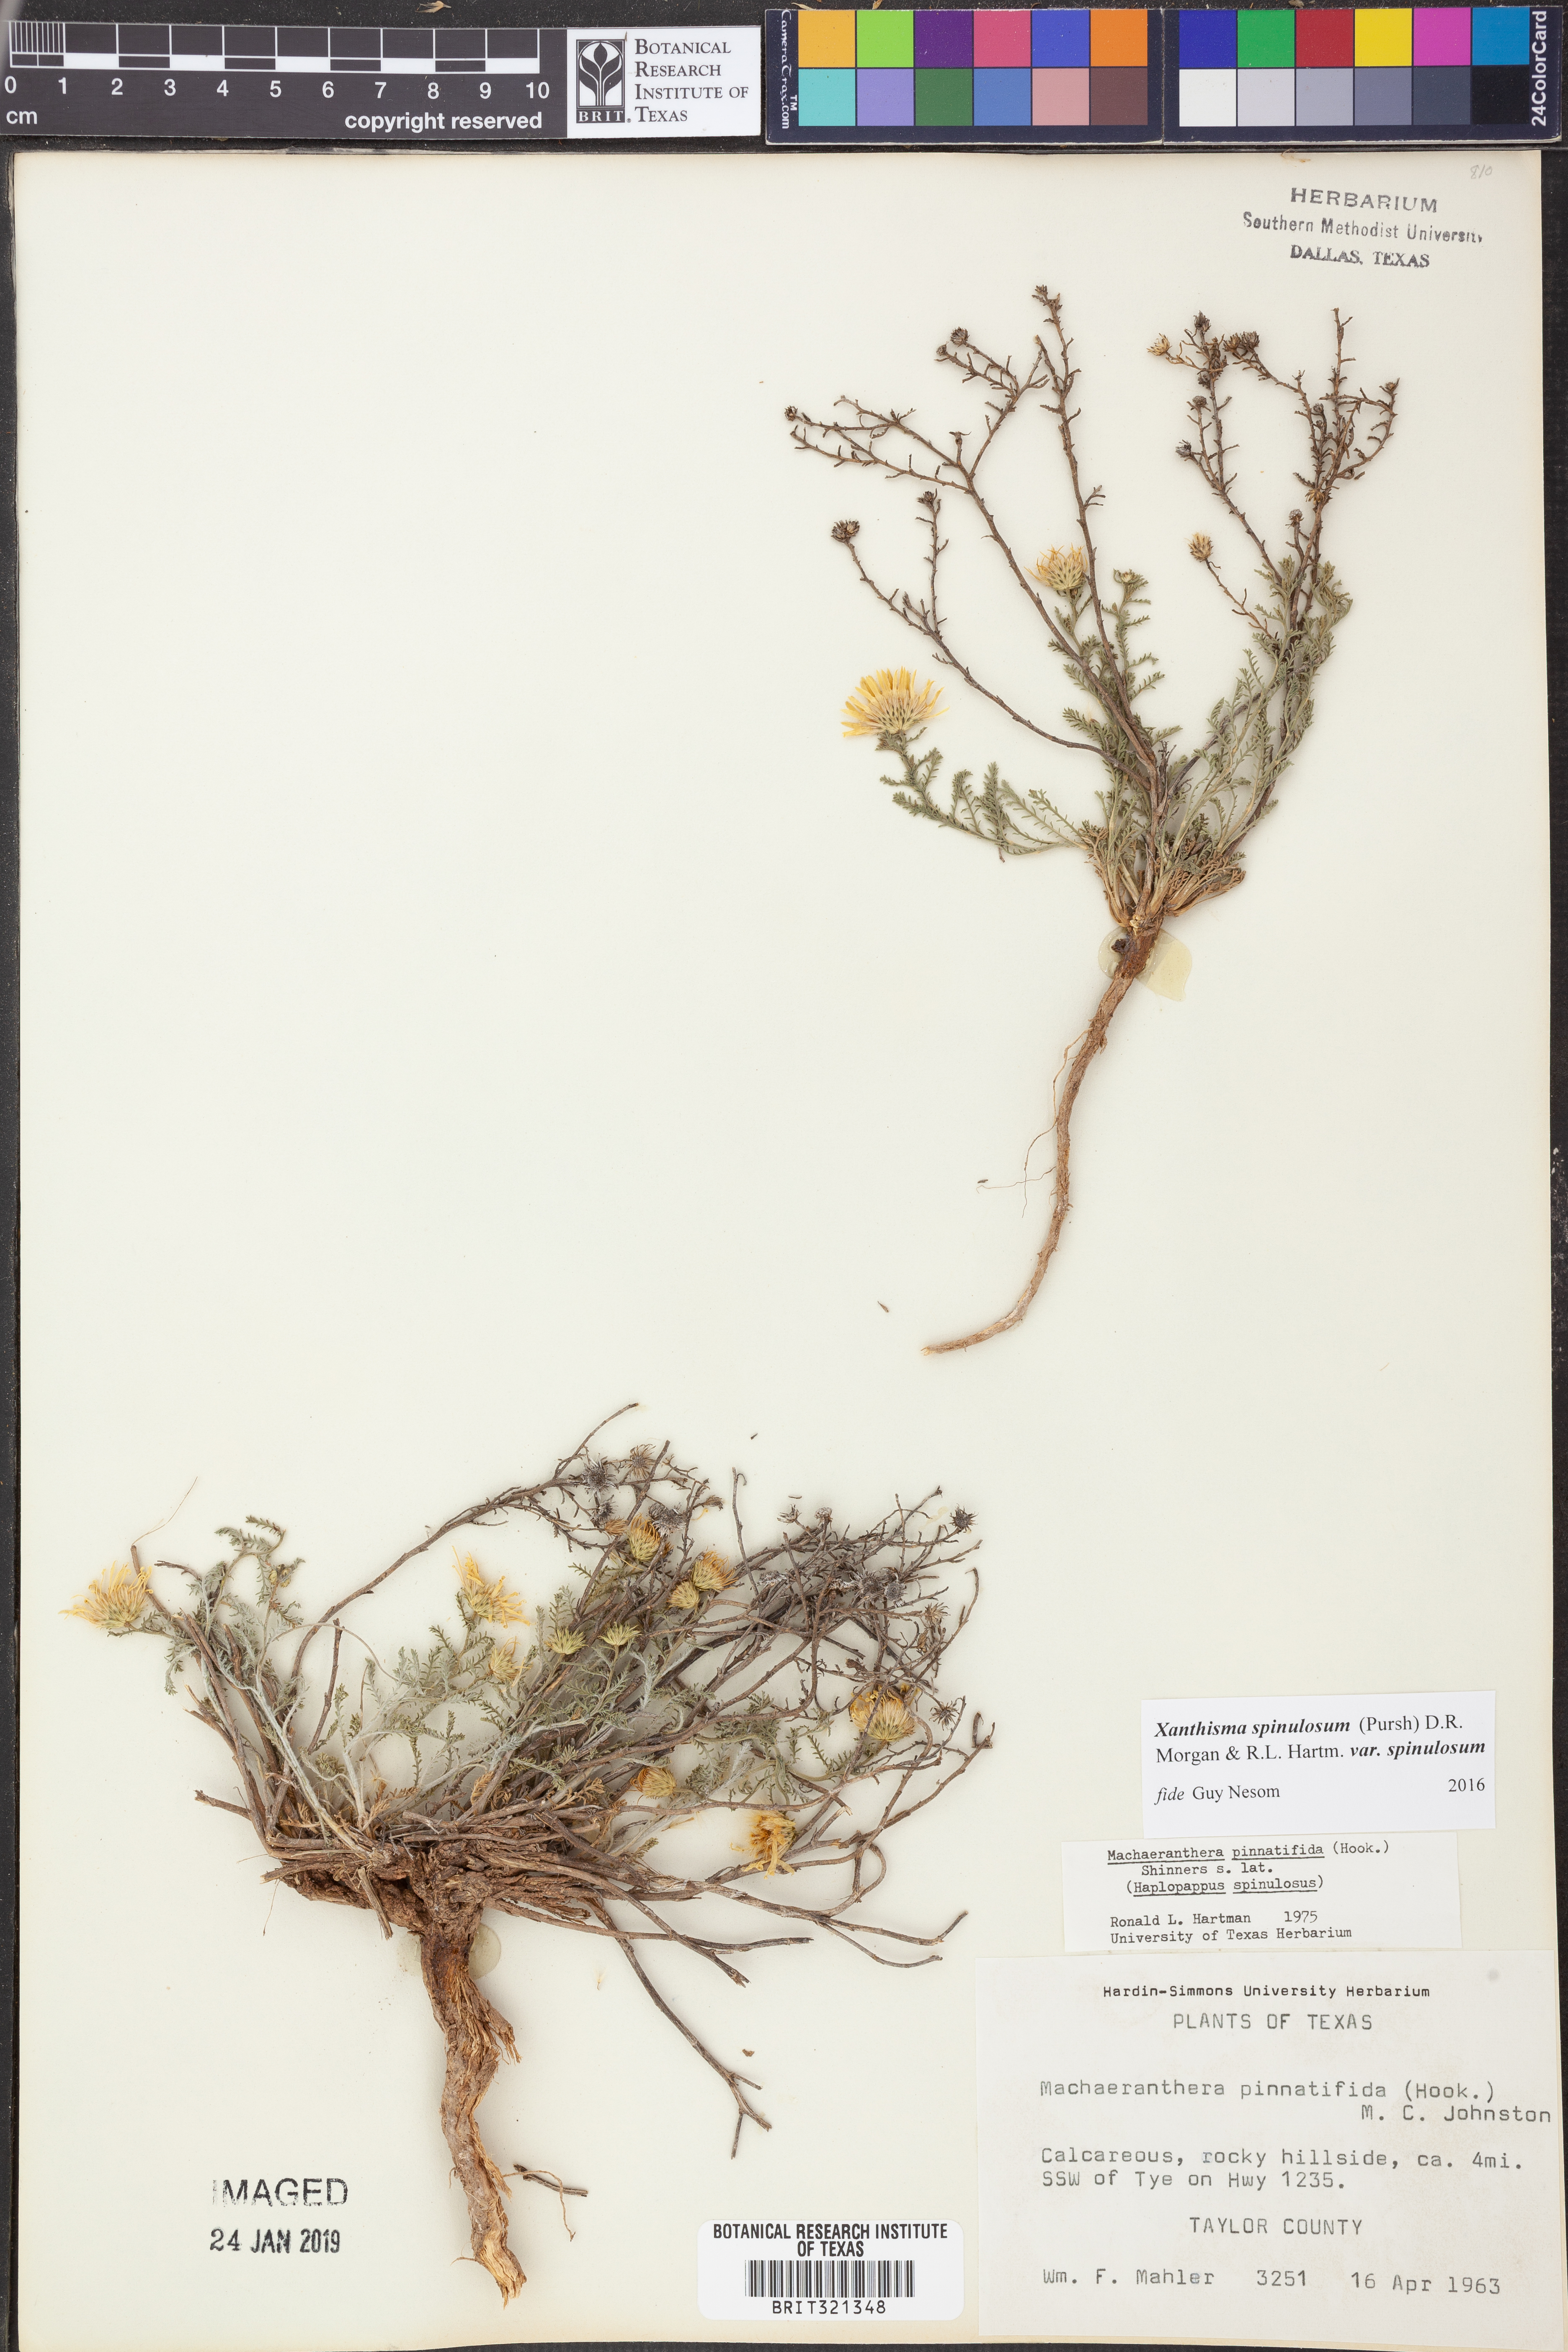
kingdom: Plantae
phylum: Tracheophyta
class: Magnoliopsida
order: Asterales
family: Asteraceae
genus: Xanthisma
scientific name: Xanthisma spinulosum
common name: Spiny goldenweed
